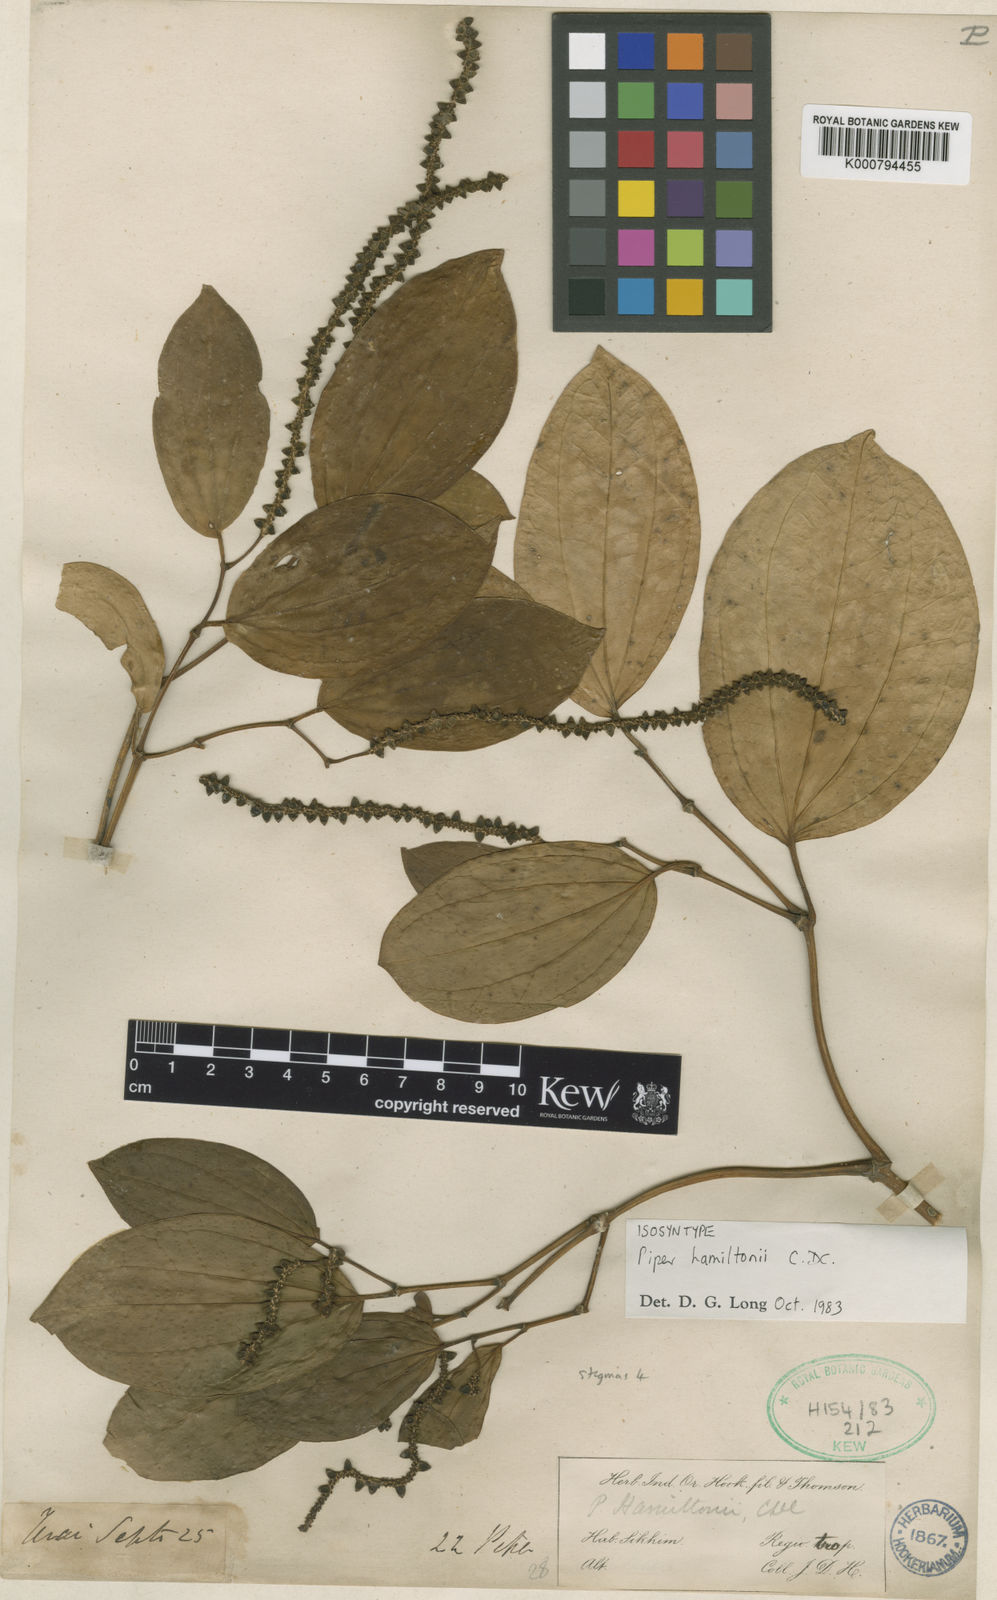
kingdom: Plantae
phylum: Tracheophyta
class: Magnoliopsida
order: Piperales
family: Piperaceae
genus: Piper
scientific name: Piper hamiltonii
